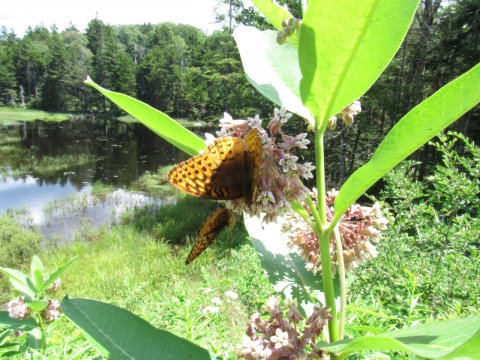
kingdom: Animalia
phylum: Arthropoda
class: Insecta
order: Lepidoptera
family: Nymphalidae
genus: Speyeria
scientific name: Speyeria cybele
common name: Great Spangled Fritillary
